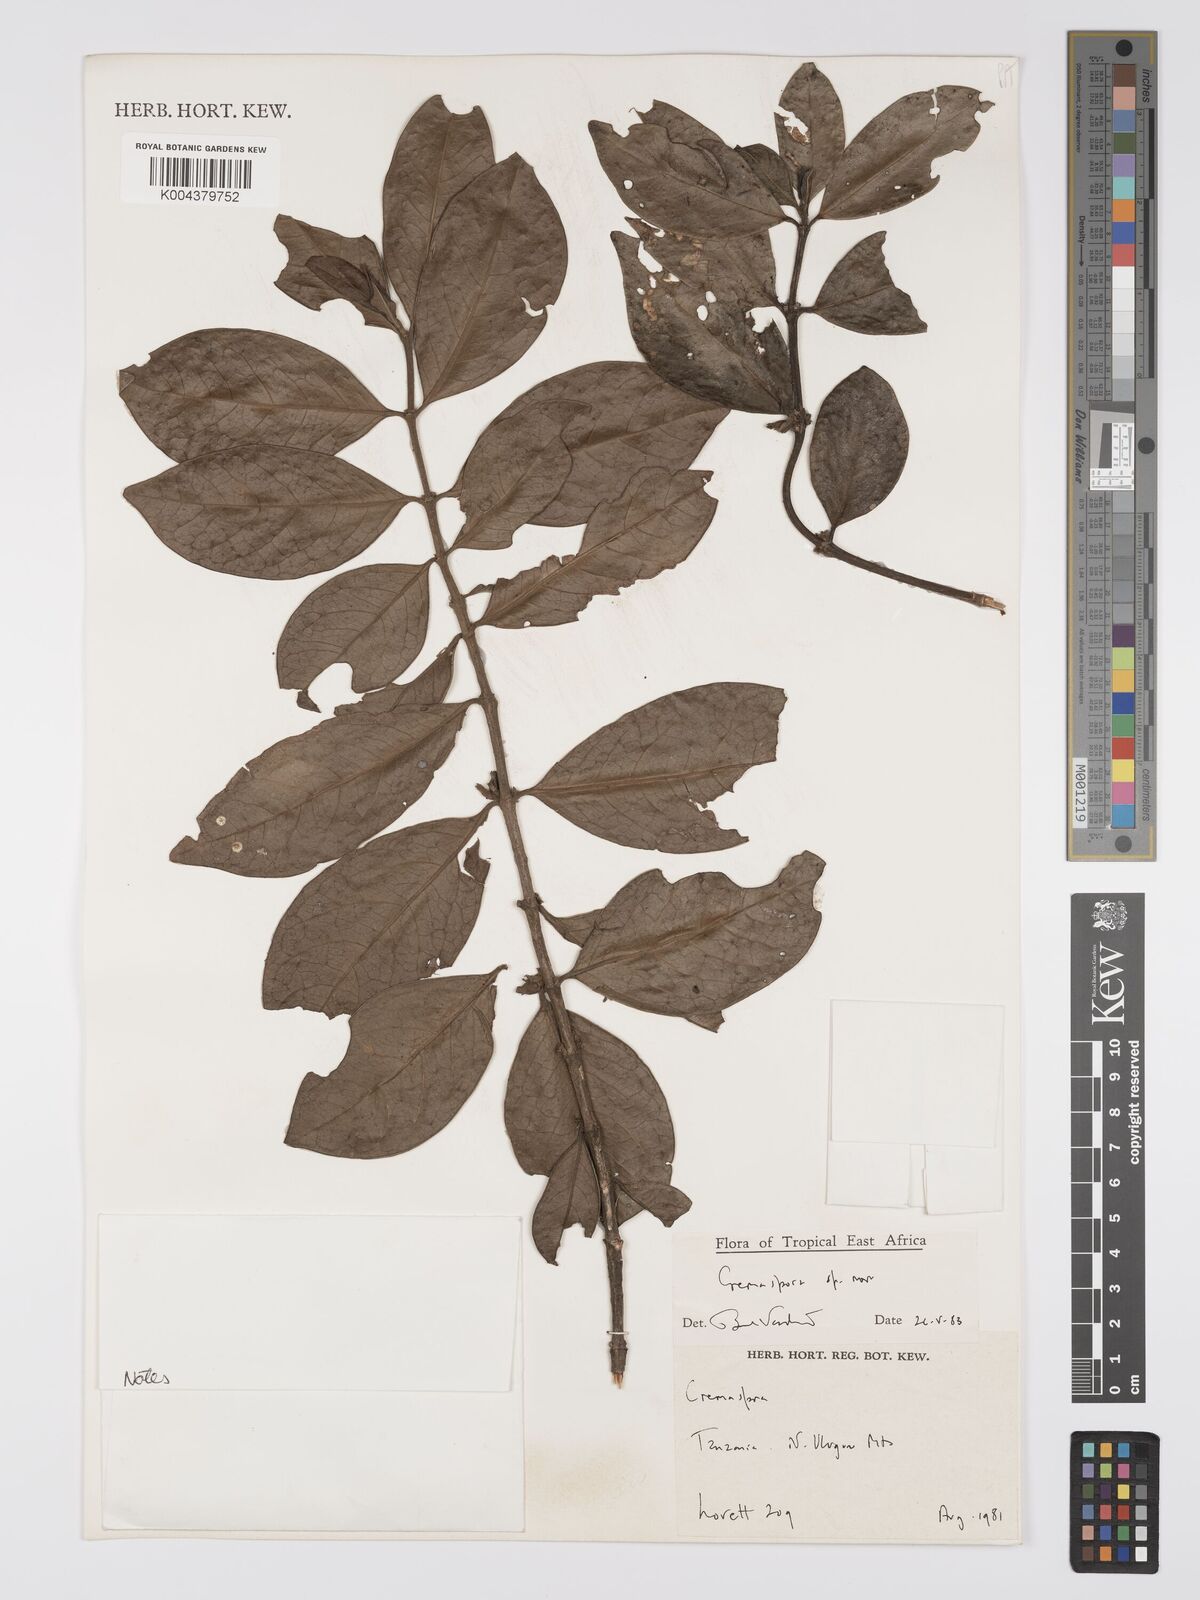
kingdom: Plantae
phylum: Tracheophyta
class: Magnoliopsida
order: Gentianales
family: Rubiaceae
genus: Cremaspora
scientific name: Cremaspora
